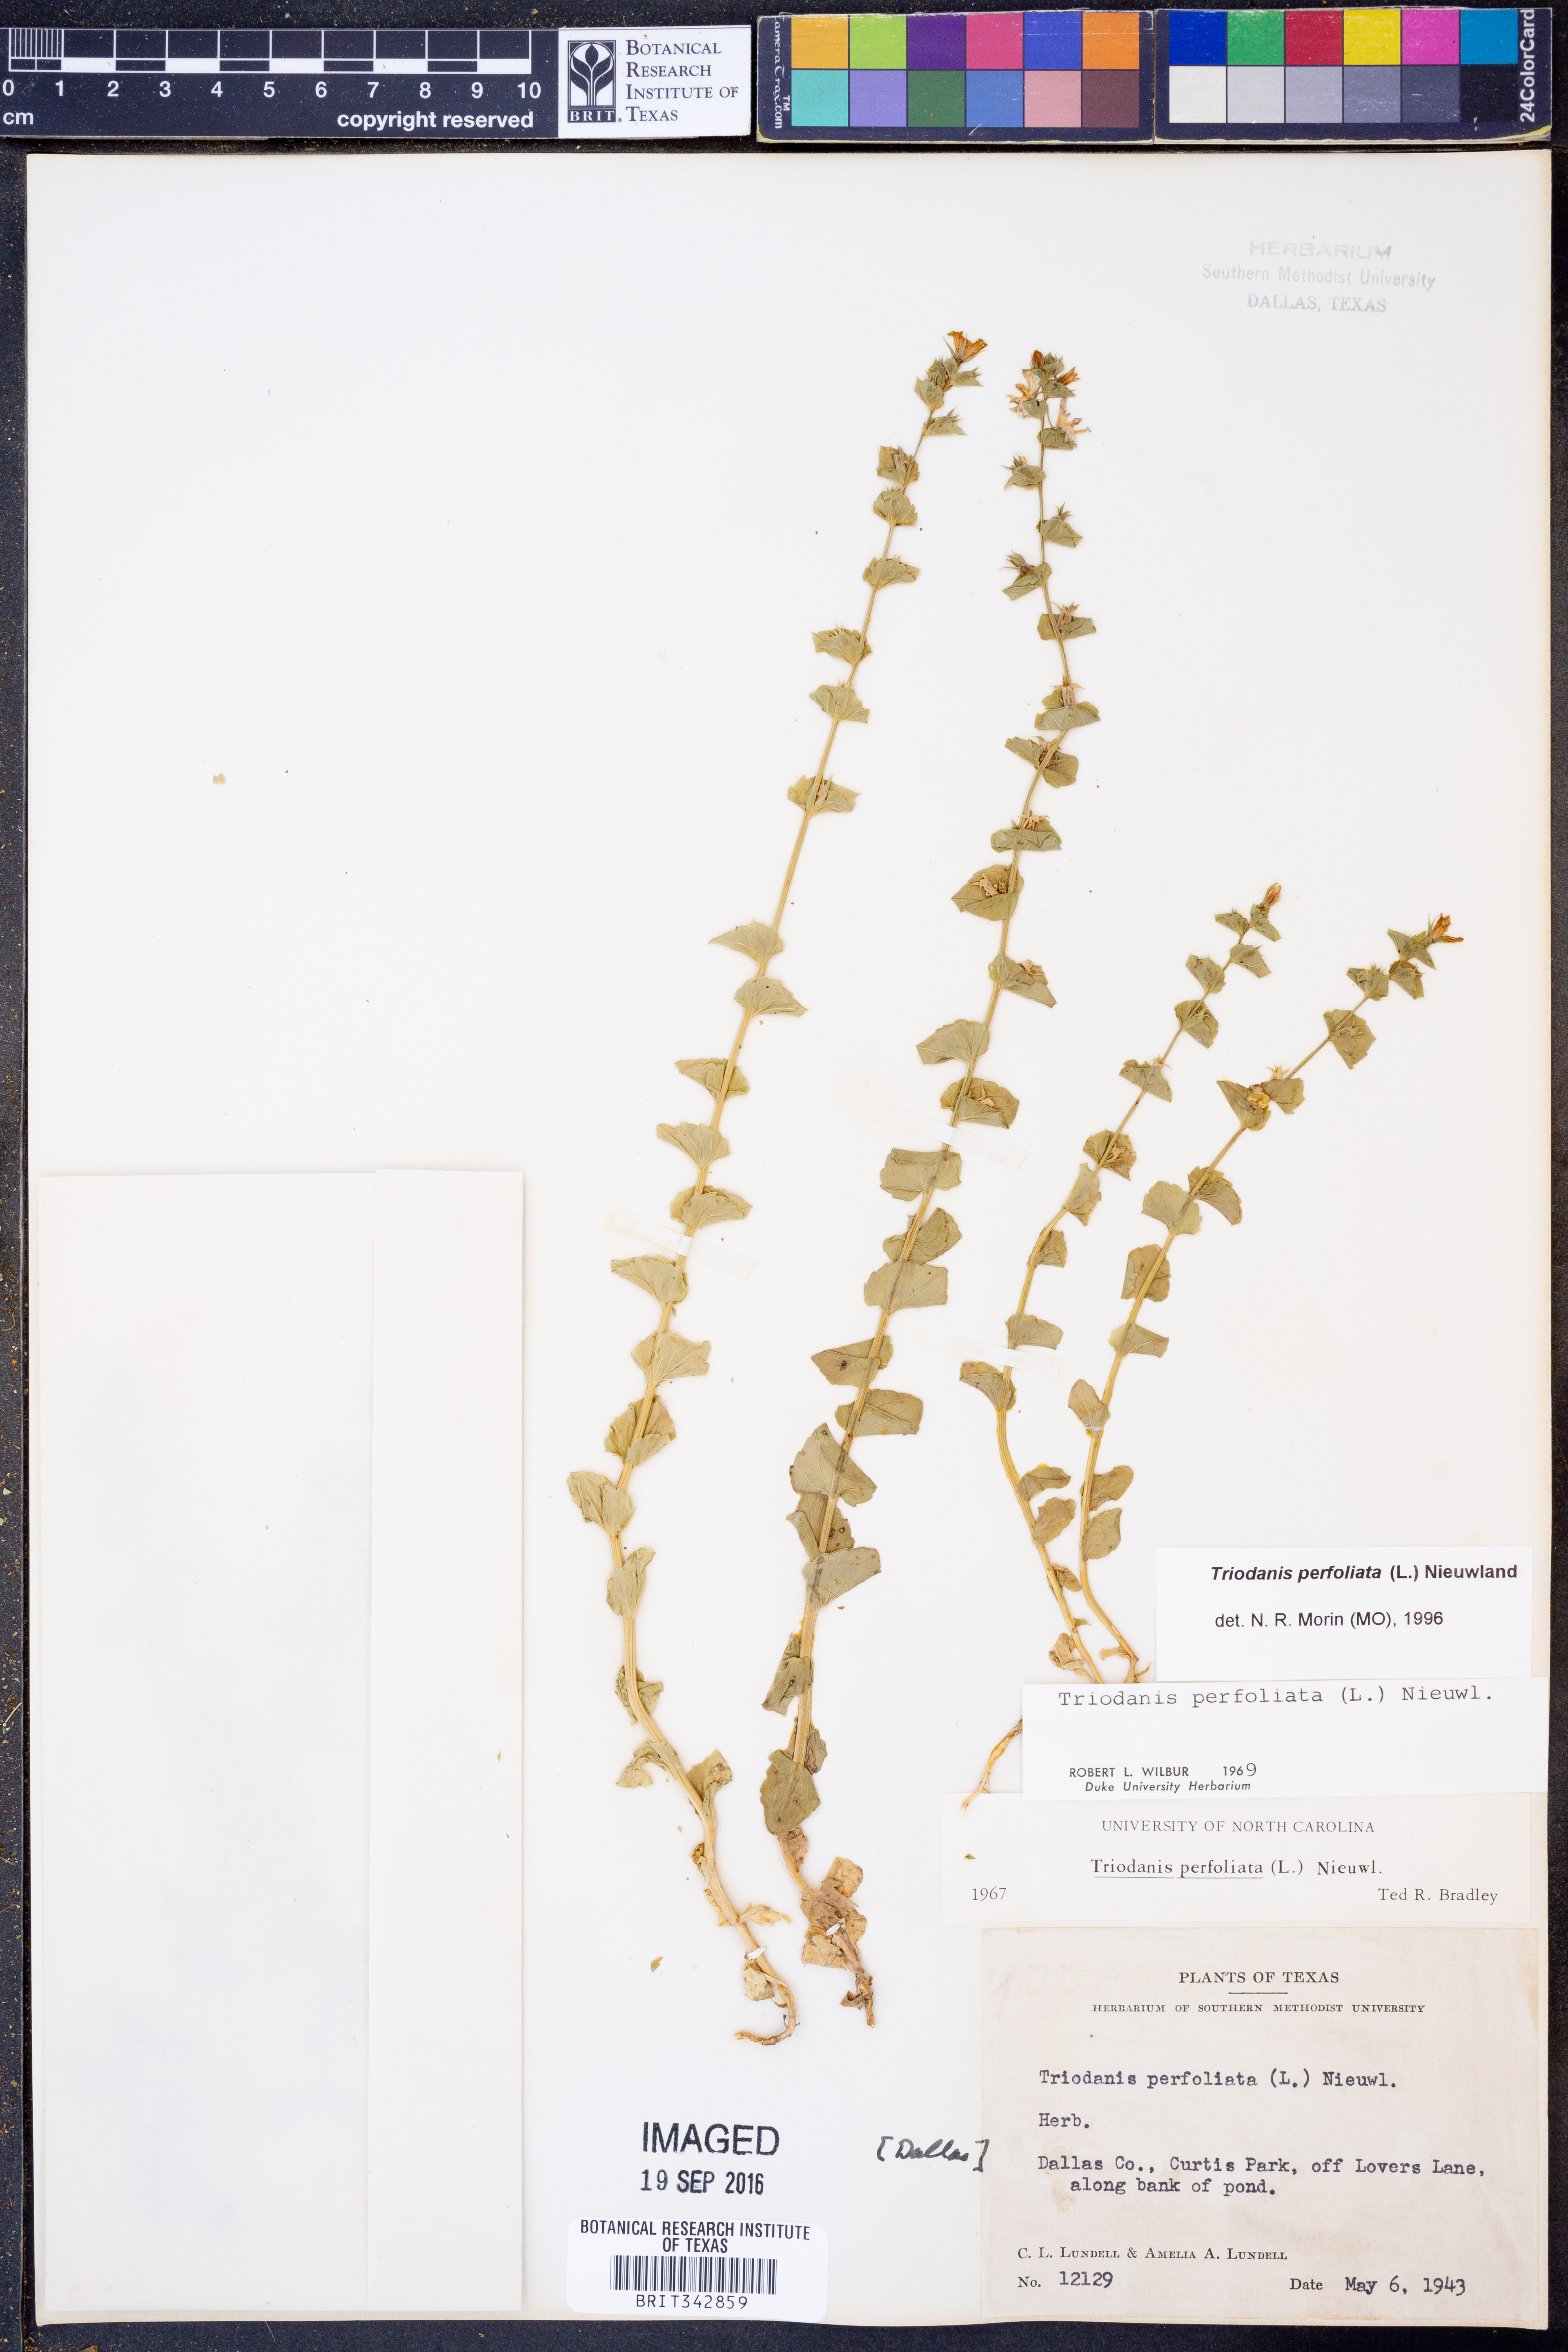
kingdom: Plantae
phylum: Tracheophyta
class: Magnoliopsida
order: Asterales
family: Campanulaceae
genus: Triodanis
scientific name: Triodanis perfoliata
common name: Clasping venus' looking-glass
